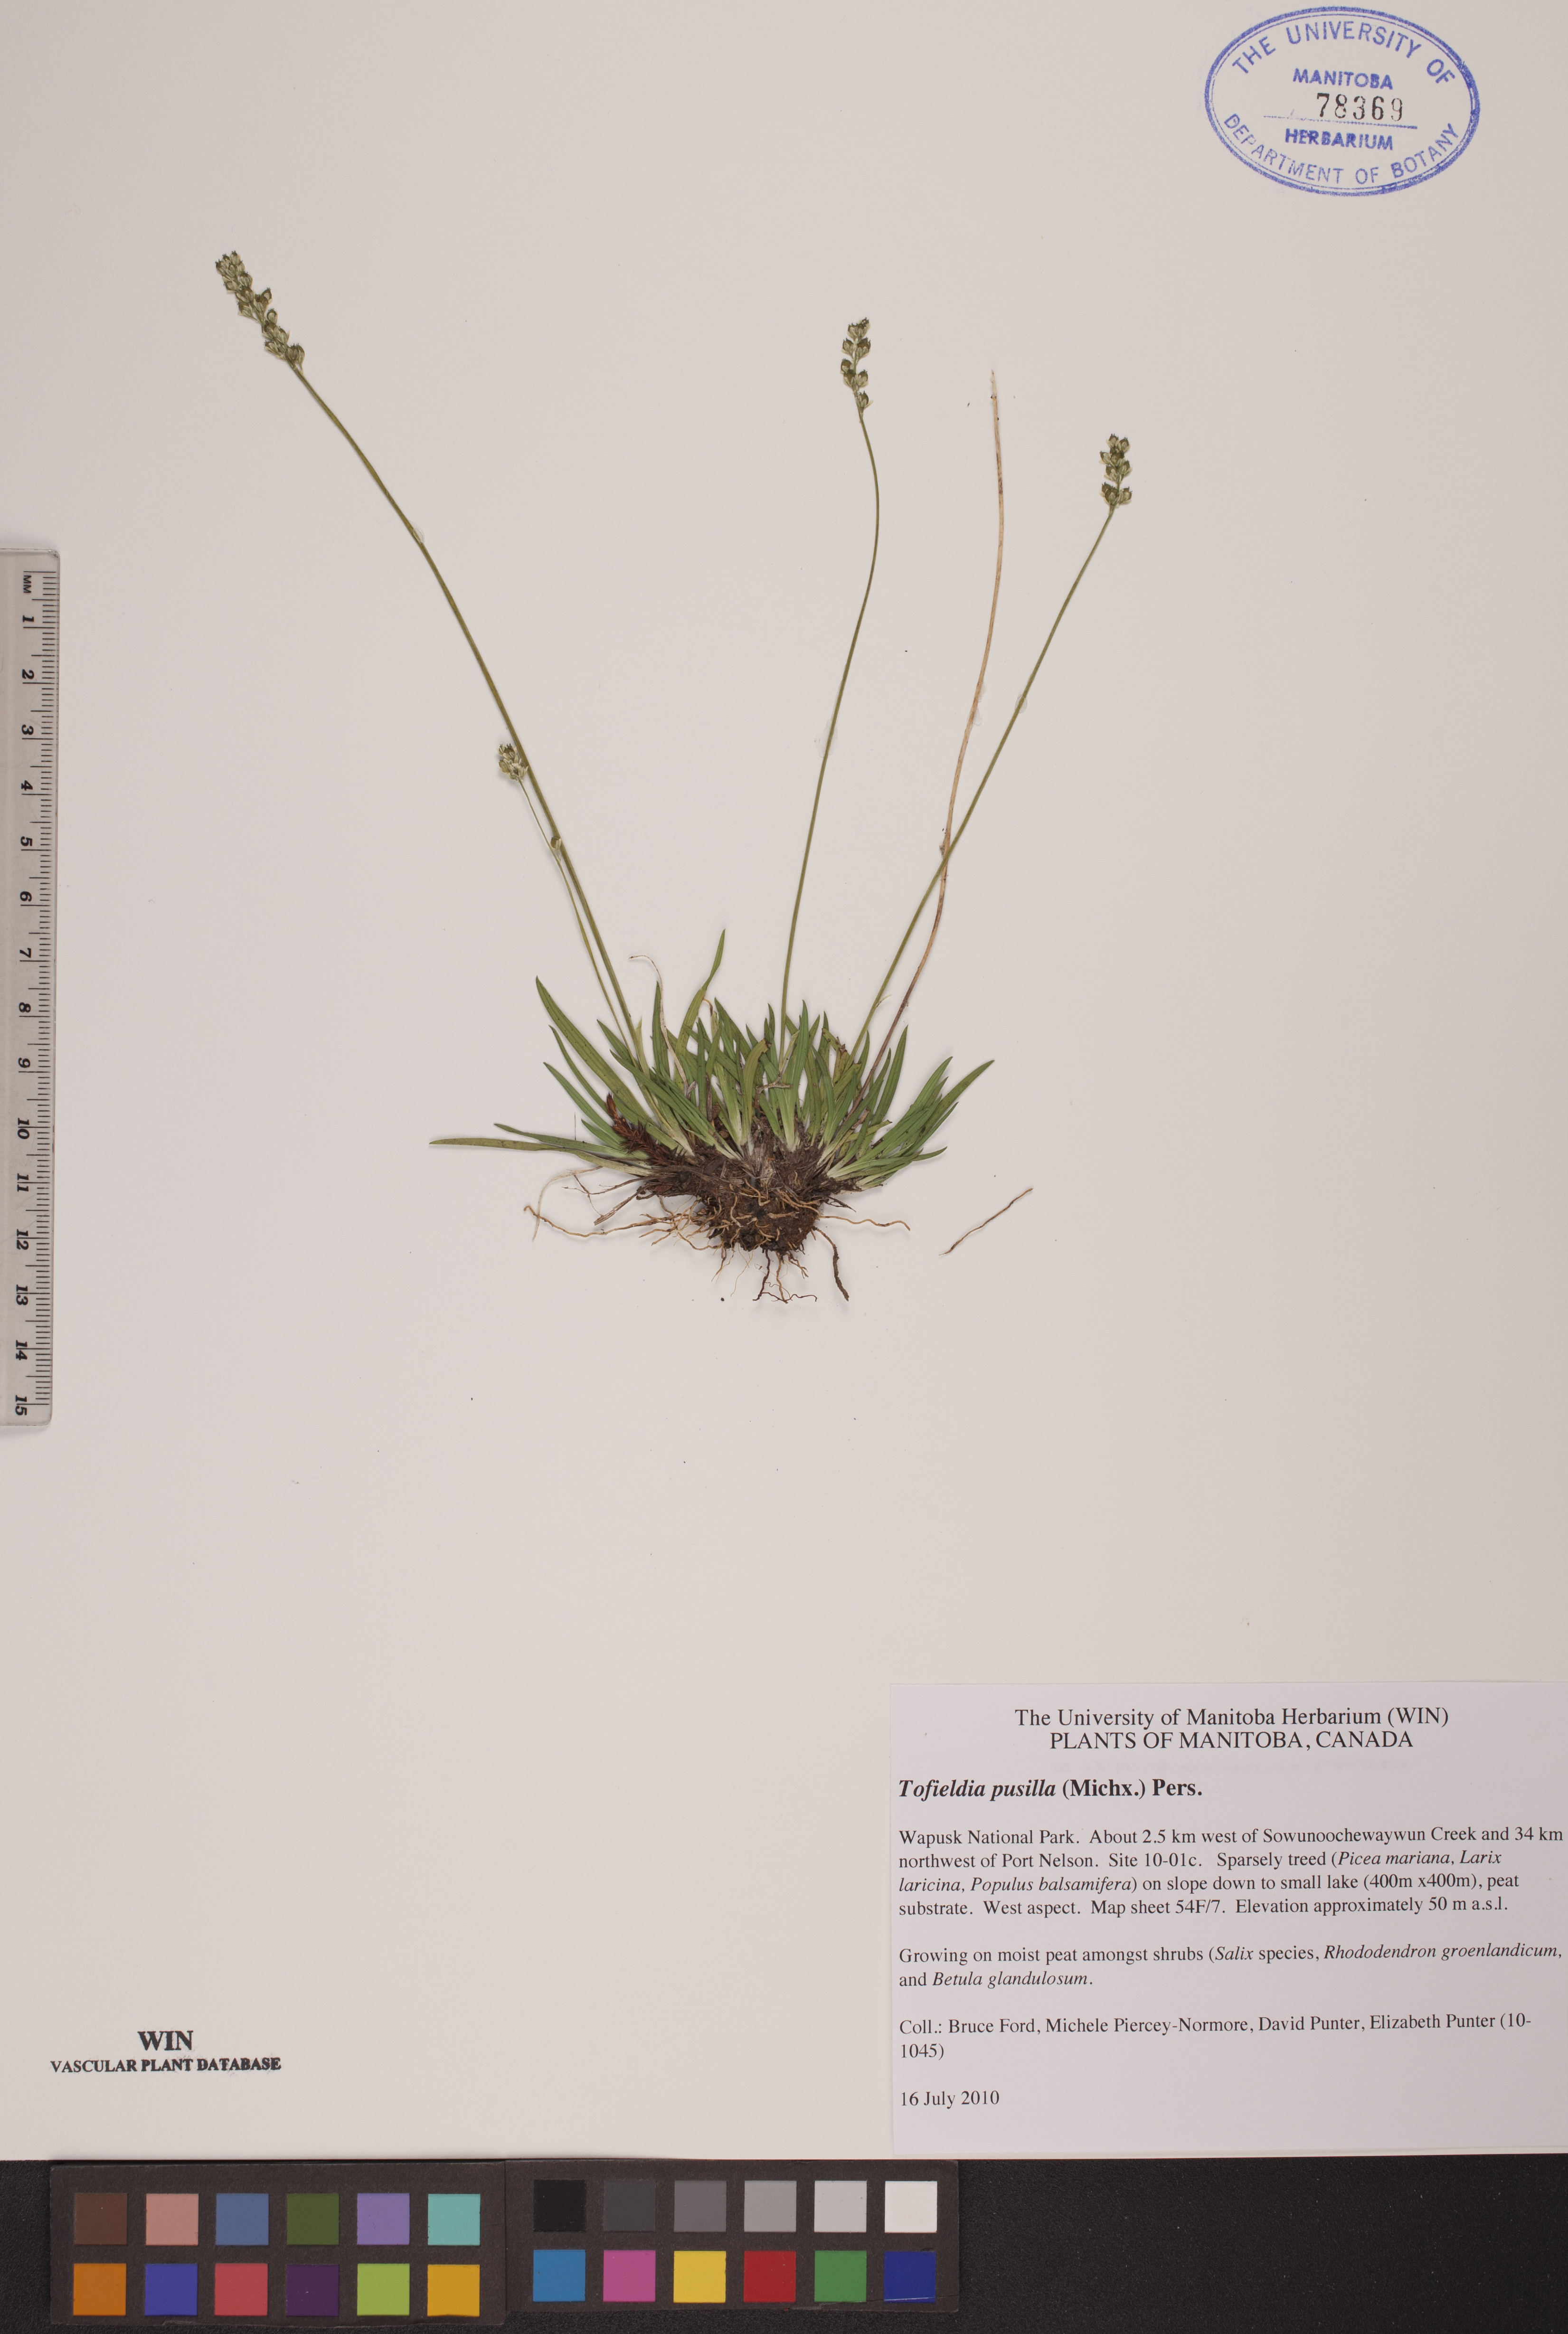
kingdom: Plantae
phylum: Tracheophyta
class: Liliopsida
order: Alismatales
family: Tofieldiaceae
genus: Tofieldia
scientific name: Tofieldia pusilla
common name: Scottish false asphodel
